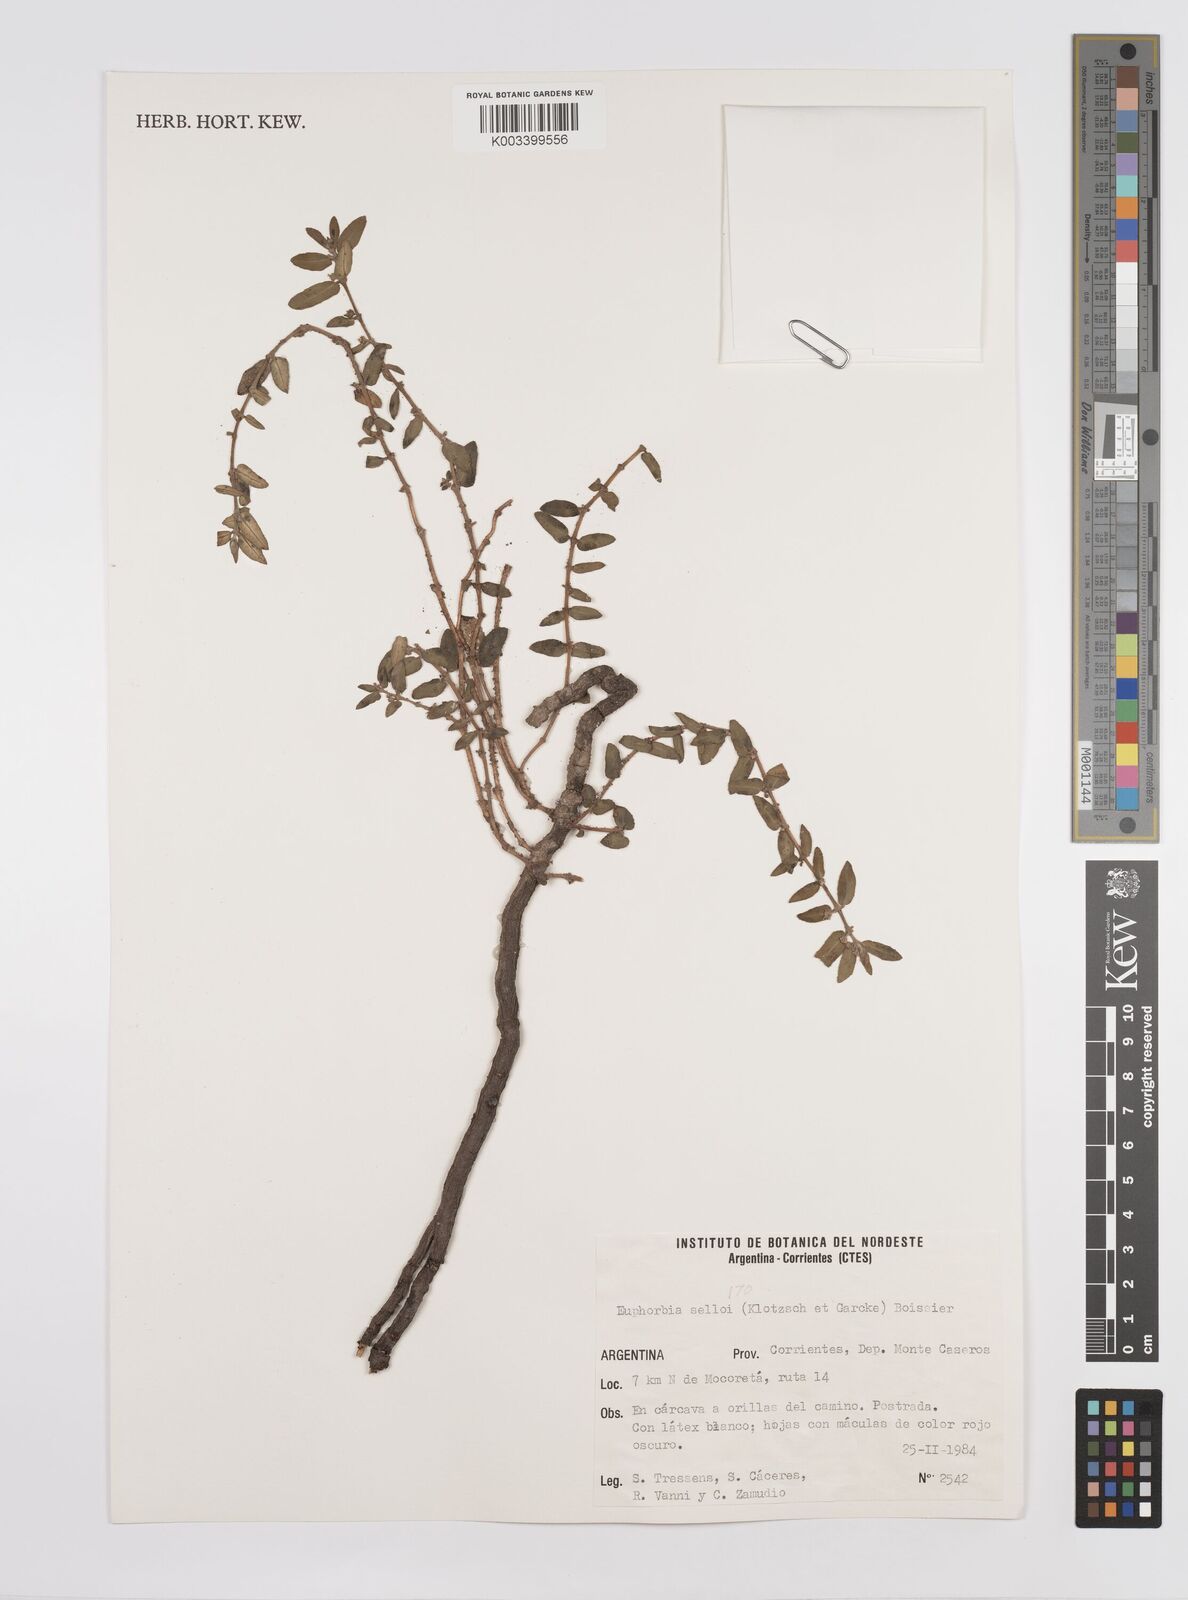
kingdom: Plantae
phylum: Tracheophyta
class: Magnoliopsida
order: Malpighiales
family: Euphorbiaceae
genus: Euphorbia
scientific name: Euphorbia selloi
